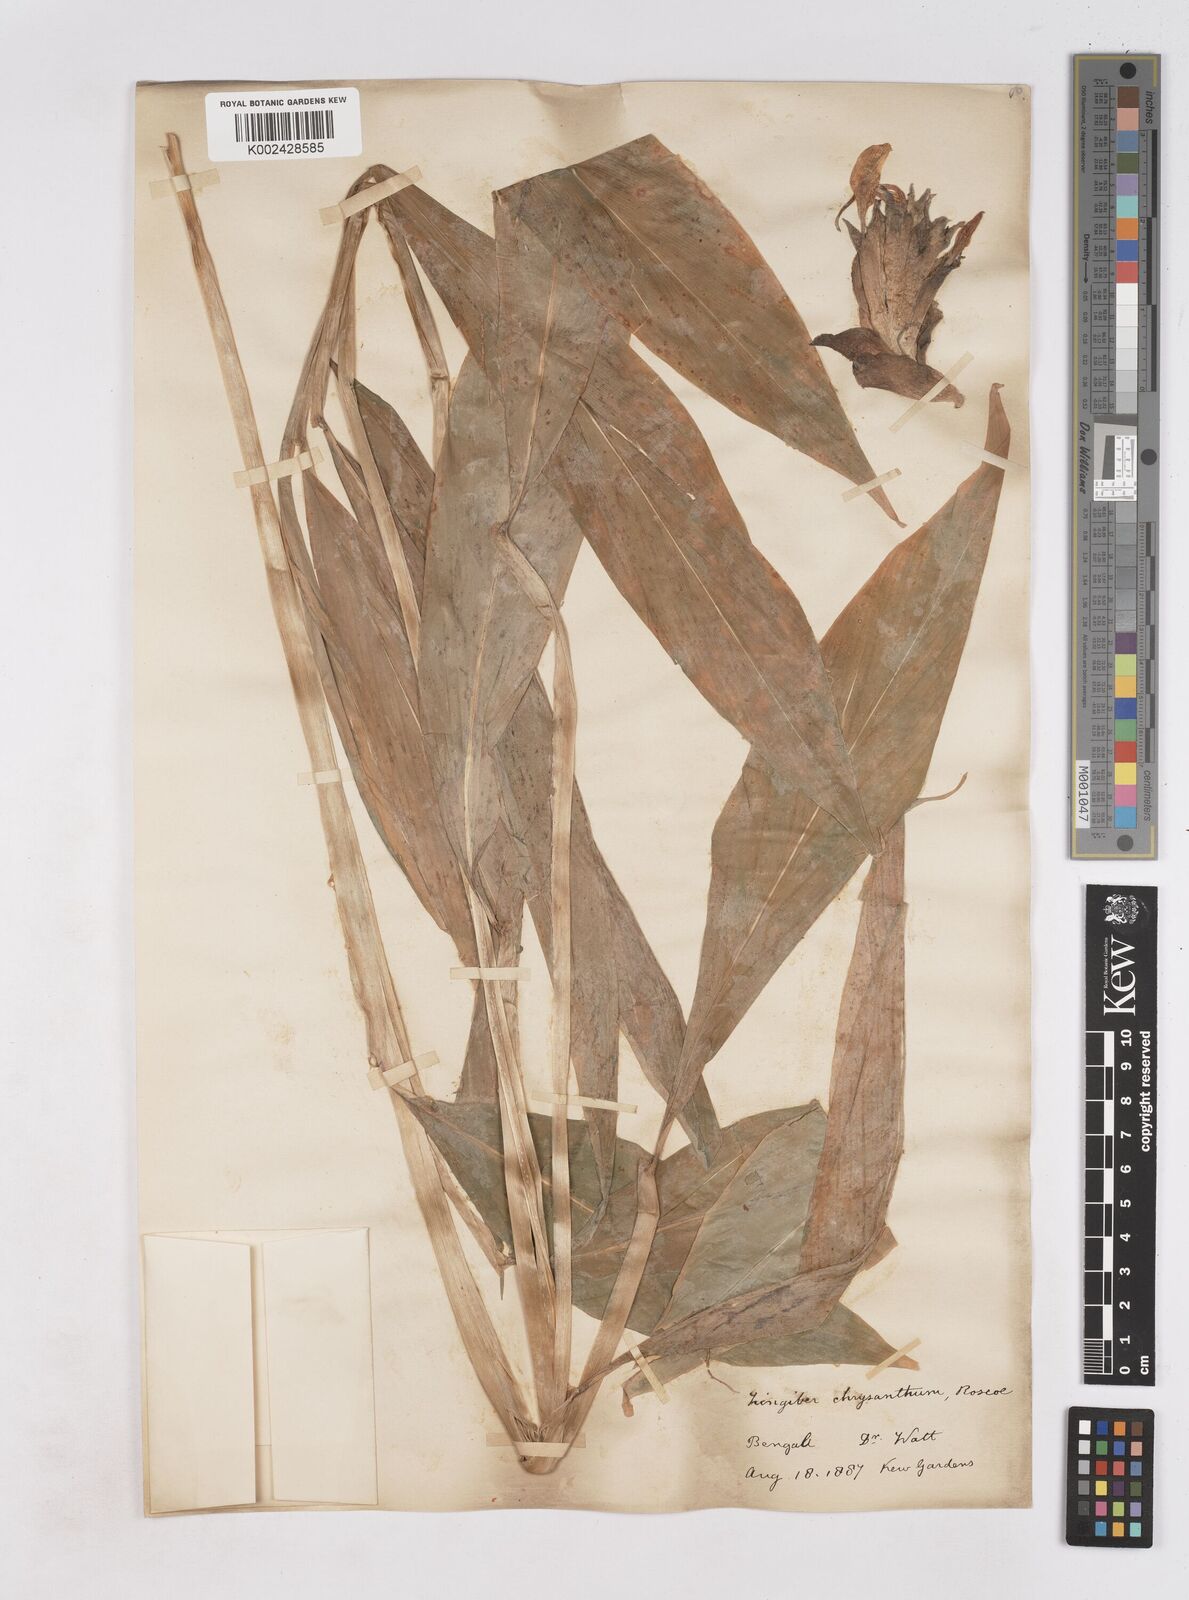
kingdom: Plantae
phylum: Tracheophyta
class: Liliopsida
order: Zingiberales
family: Zingiberaceae
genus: Zingiber
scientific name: Zingiber chrysanthum
